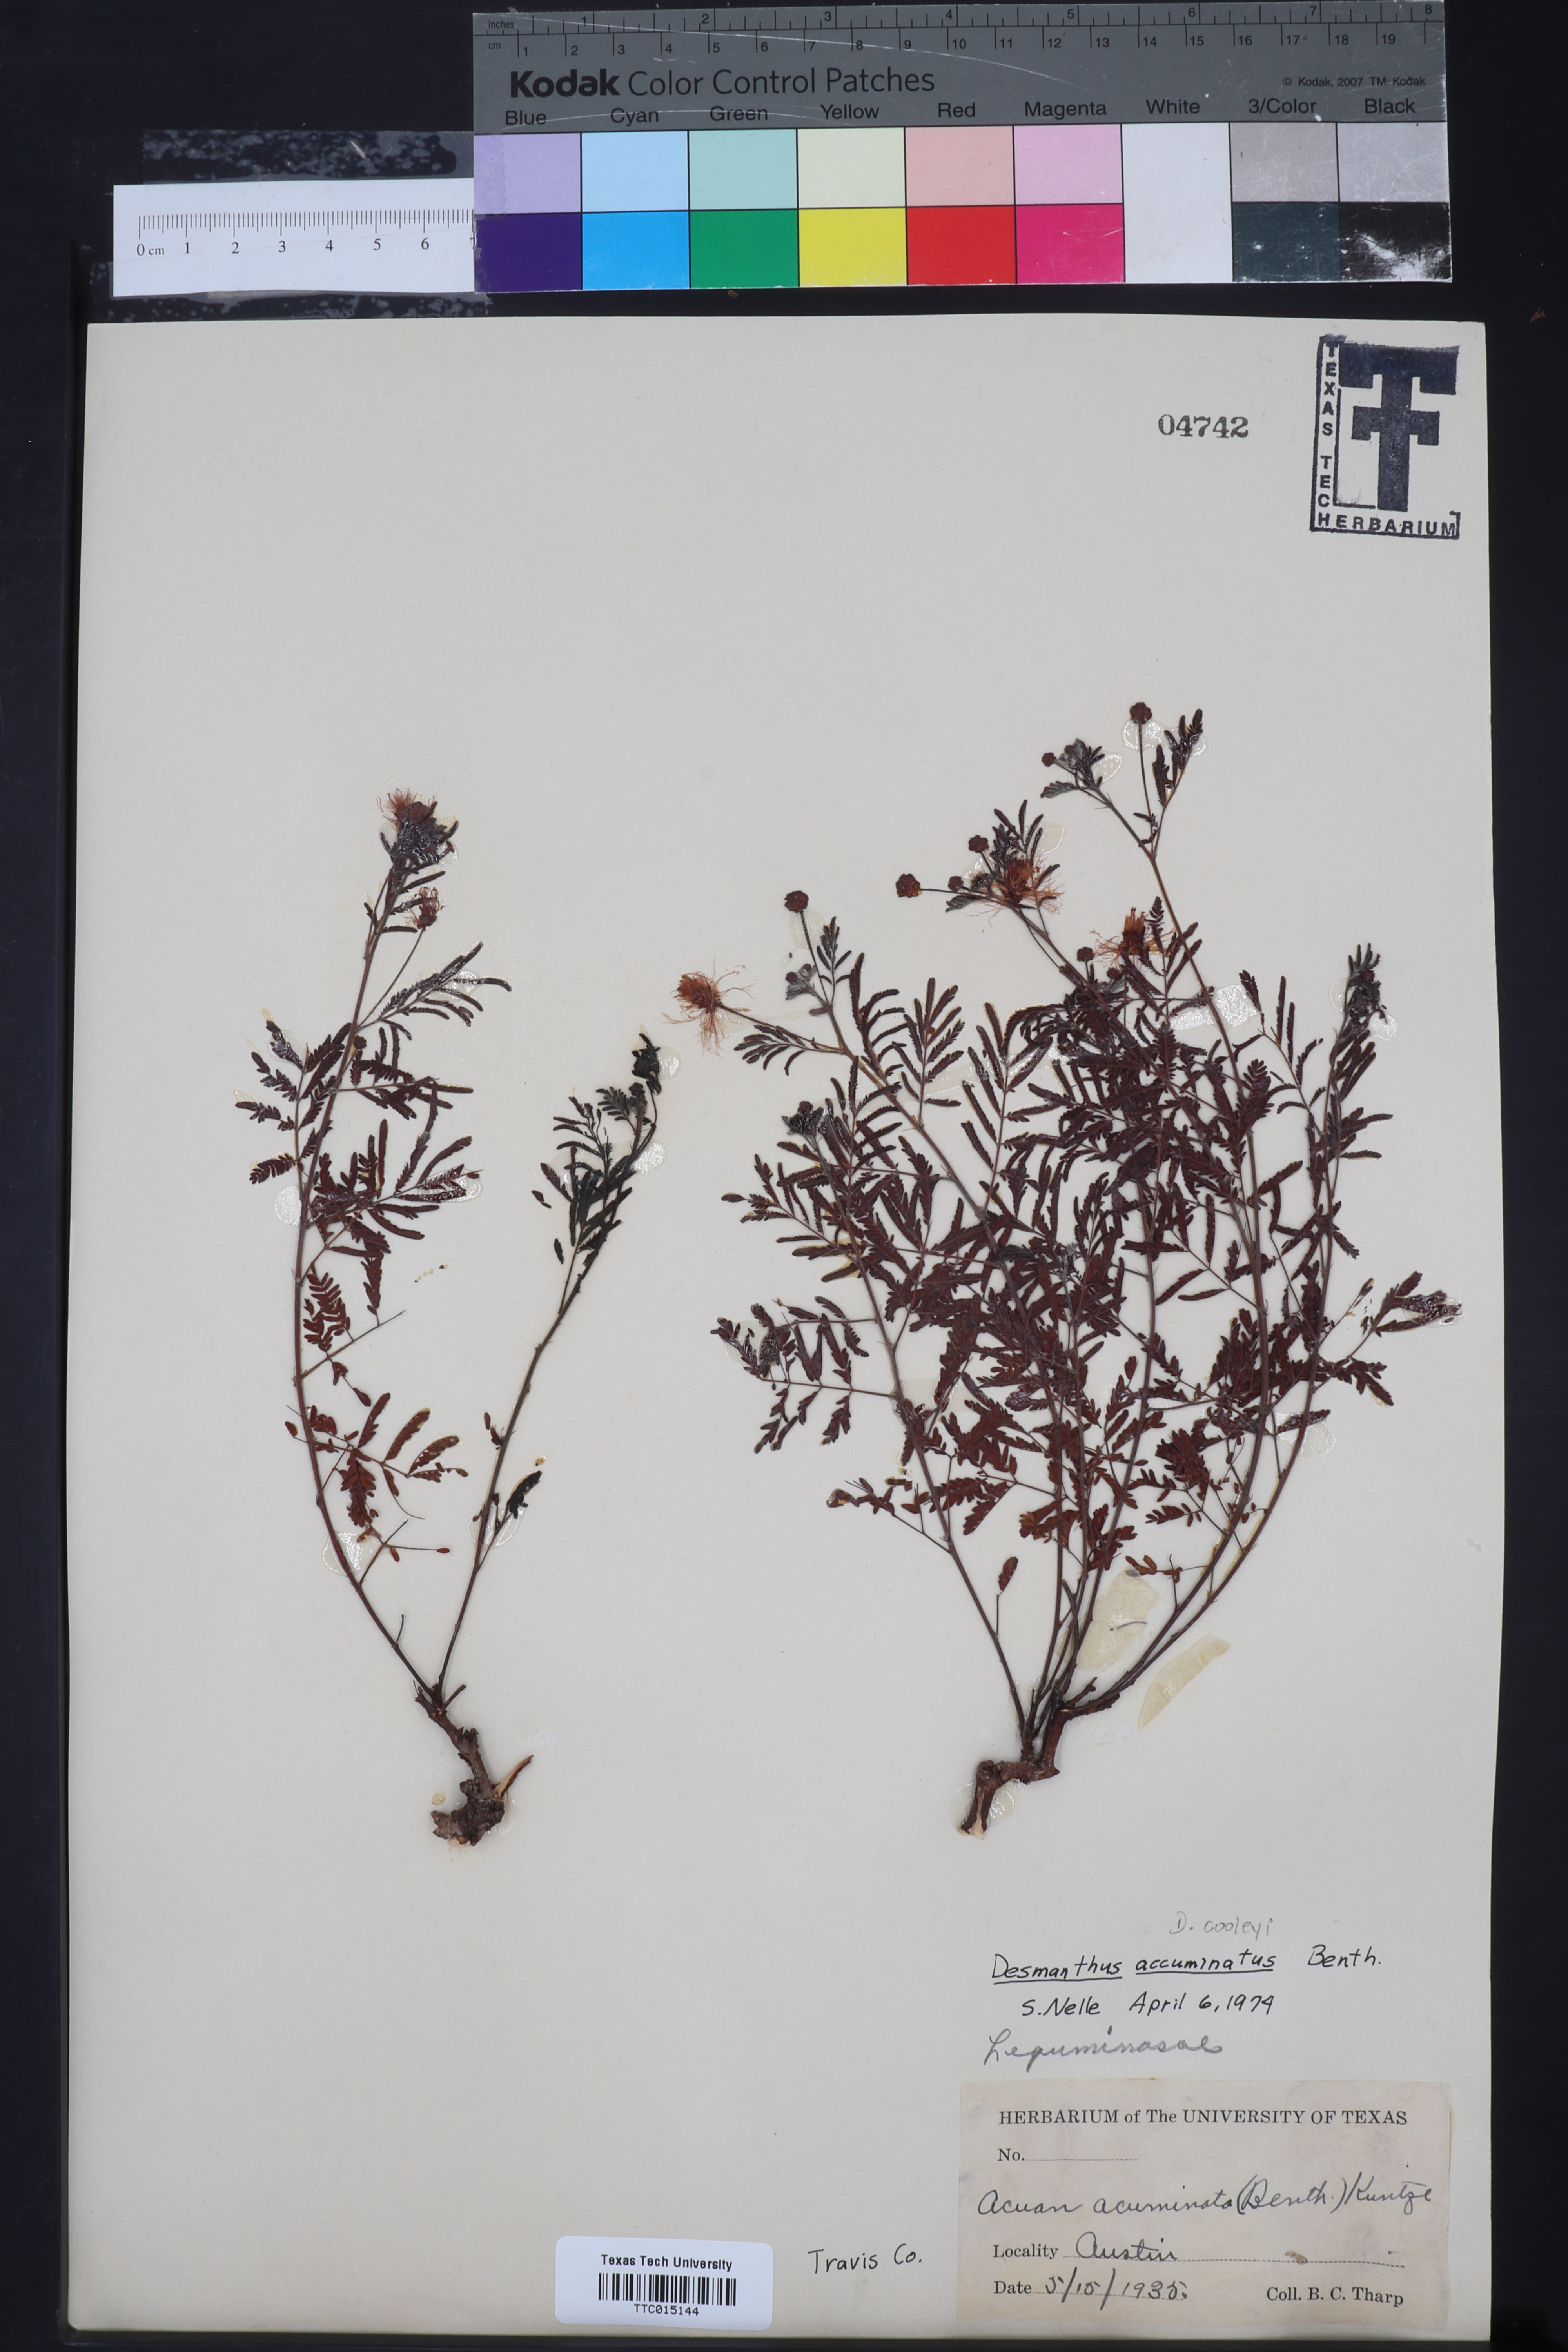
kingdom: Plantae
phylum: Tracheophyta
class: Magnoliopsida
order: Fabales
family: Fabaceae
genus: Desmanthus
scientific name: Desmanthus acuminatus
